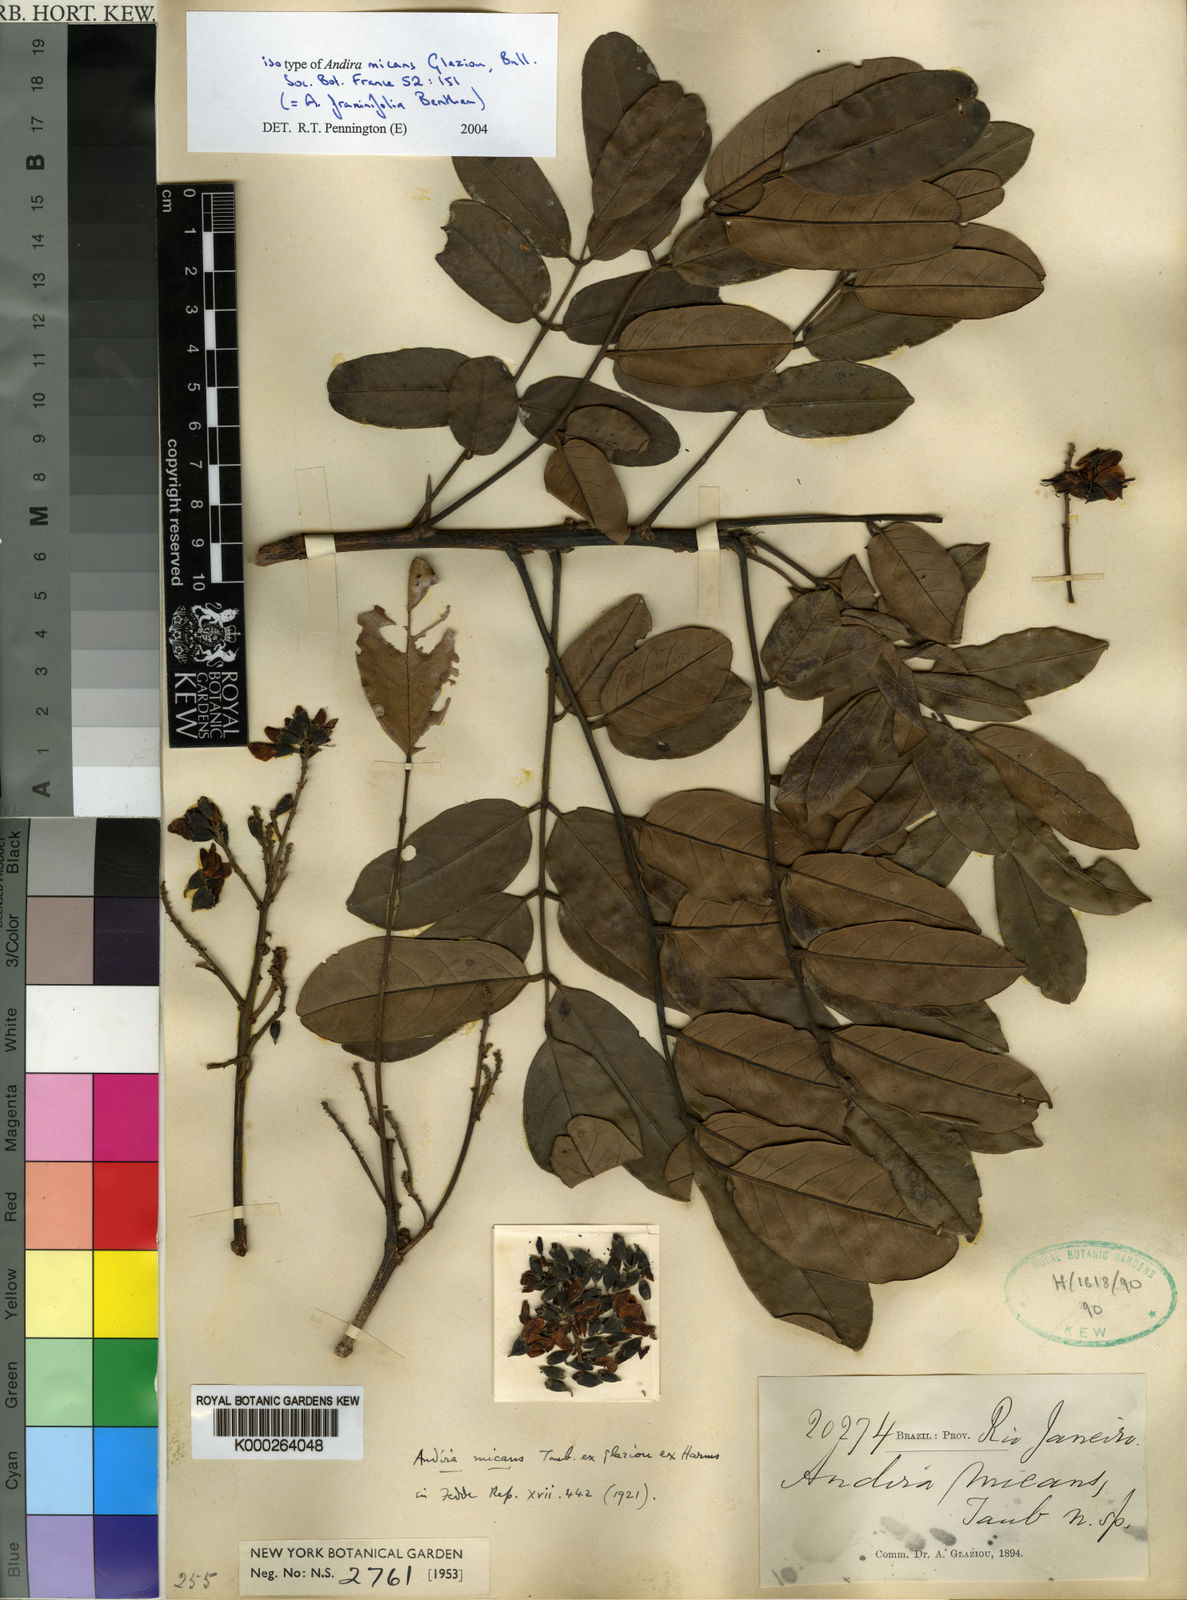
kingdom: Plantae
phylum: Tracheophyta
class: Magnoliopsida
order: Fabales
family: Fabaceae
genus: Andira
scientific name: Andira
